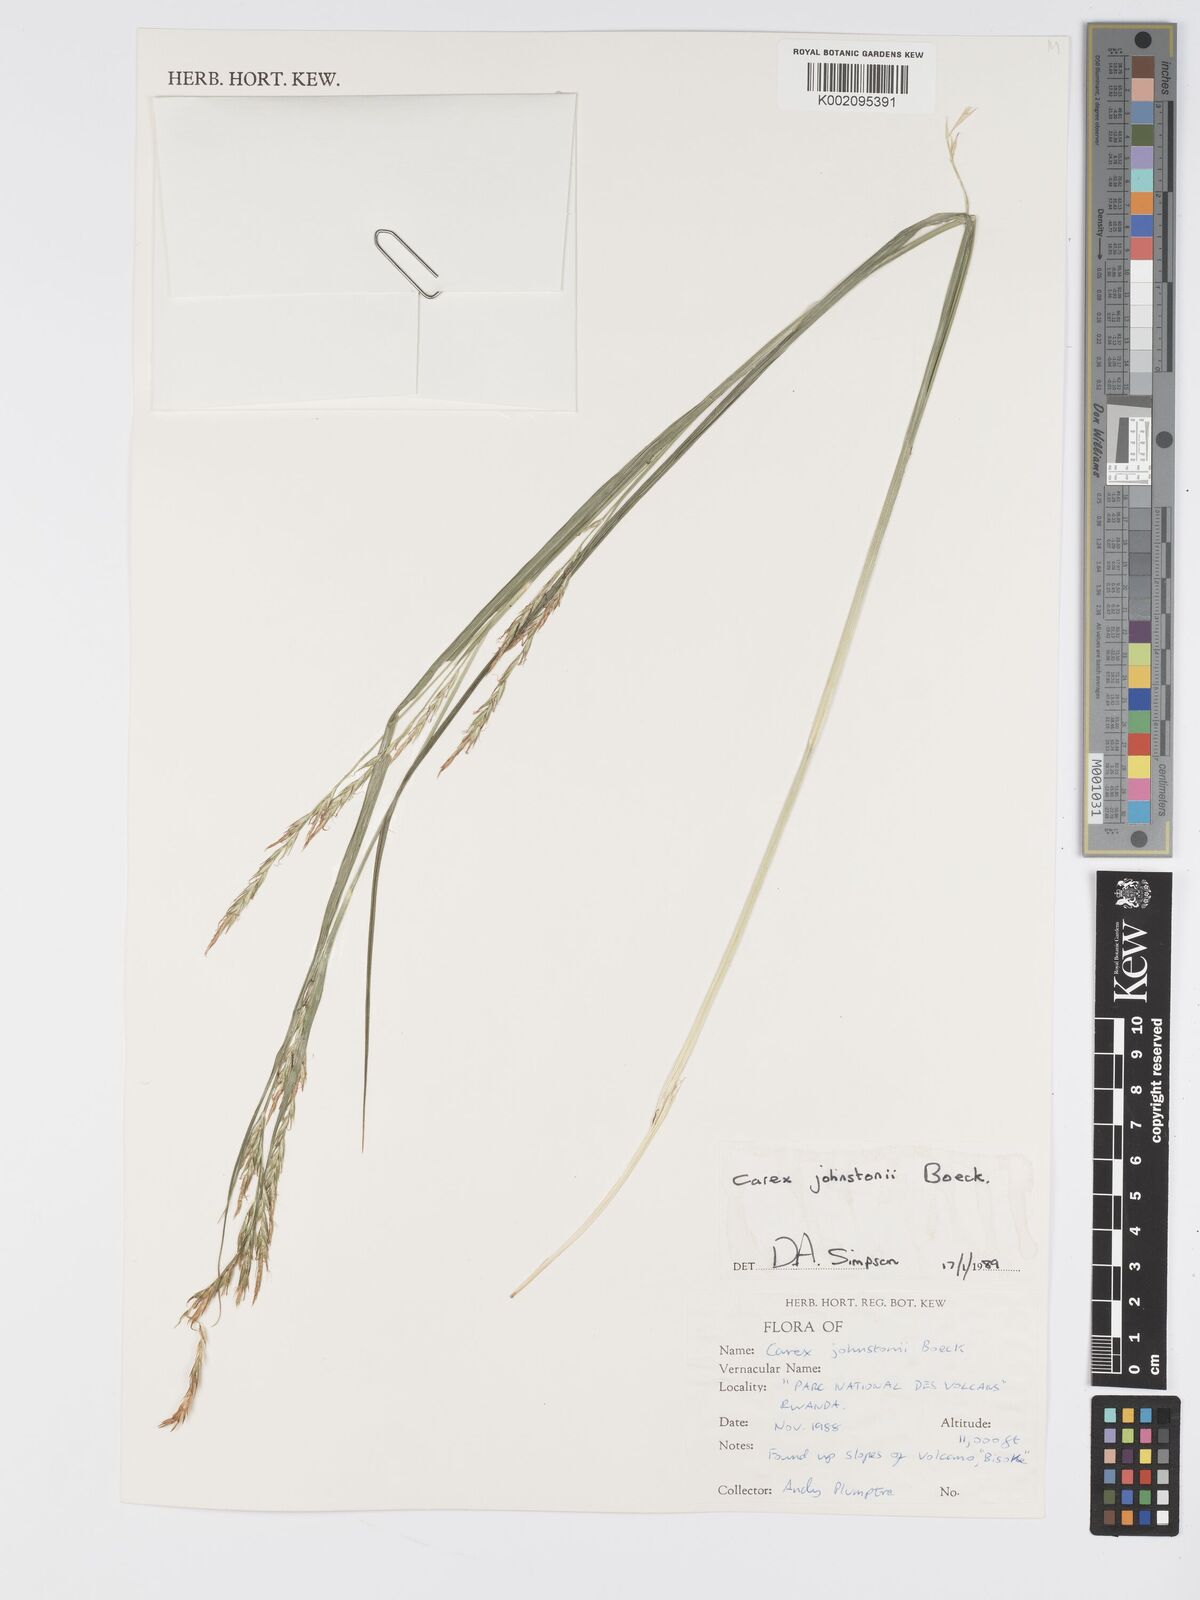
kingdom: Plantae
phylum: Tracheophyta
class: Liliopsida
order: Poales
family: Cyperaceae
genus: Carex
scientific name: Carex johnstonii
